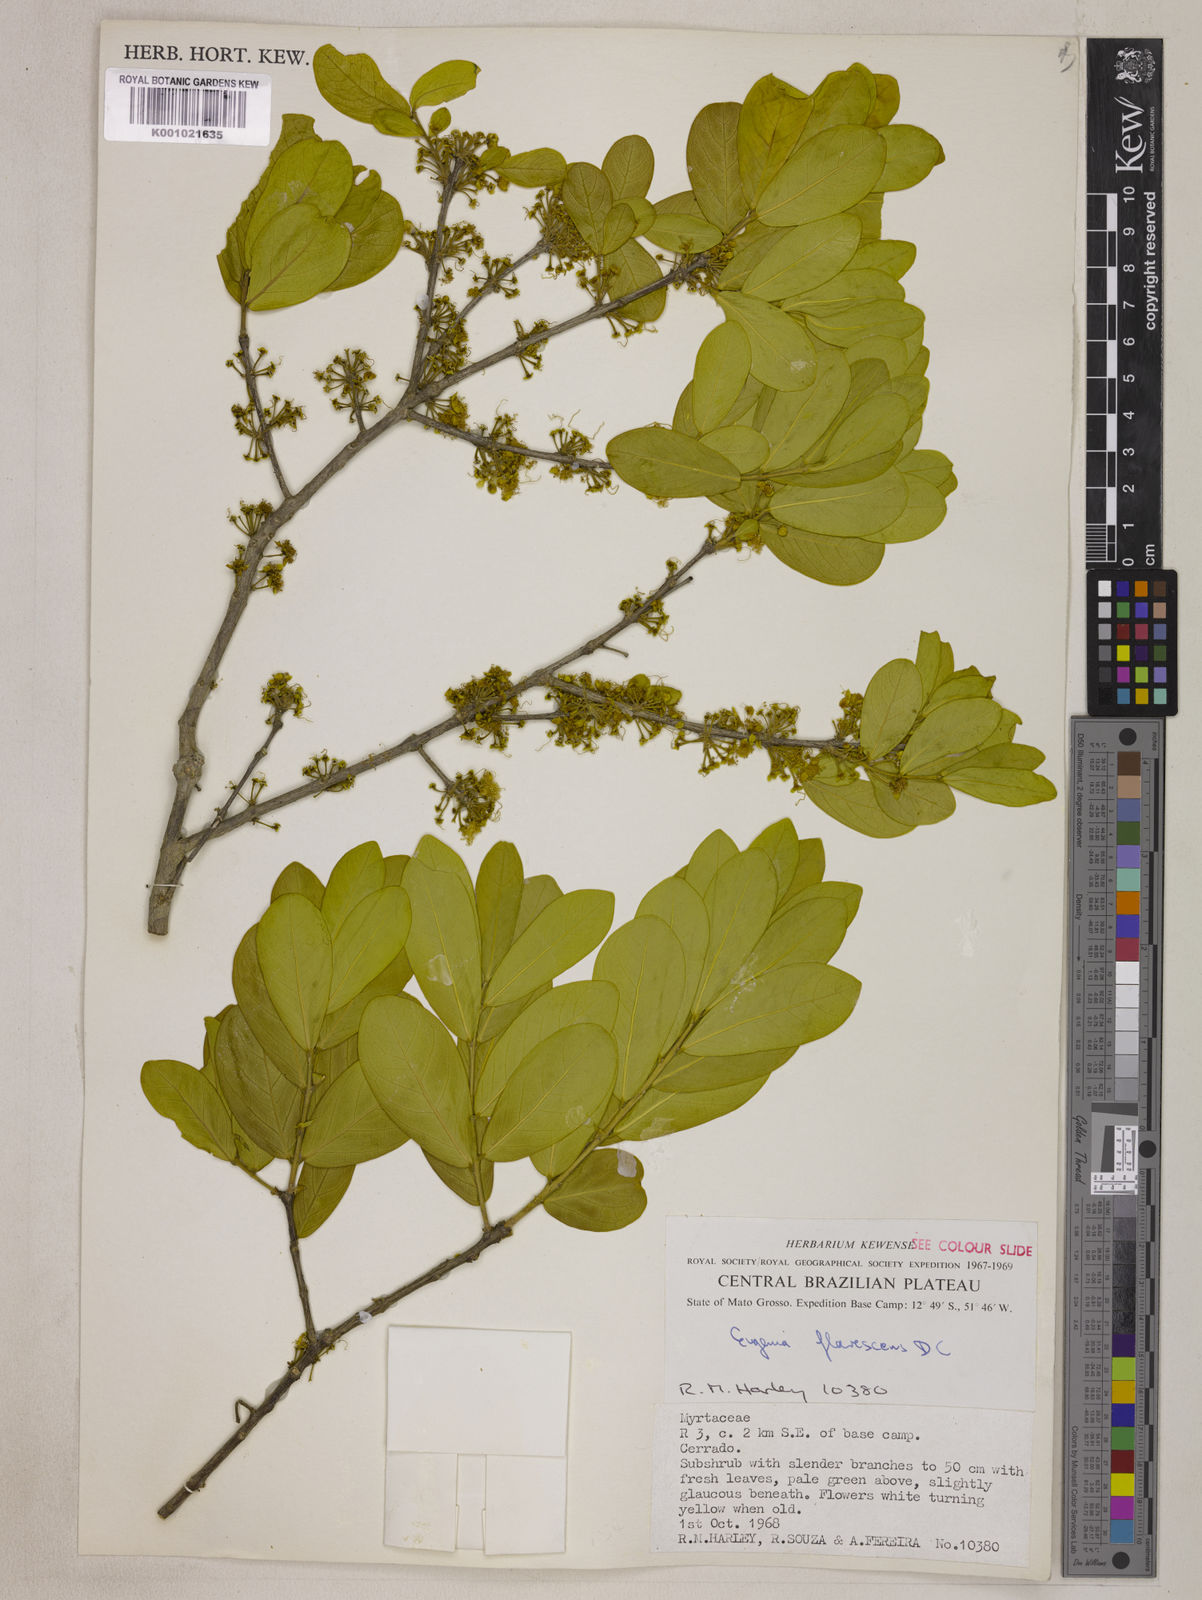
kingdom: Plantae
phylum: Tracheophyta
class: Magnoliopsida
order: Myrtales
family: Myrtaceae
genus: Eugenia
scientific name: Eugenia flavescens
